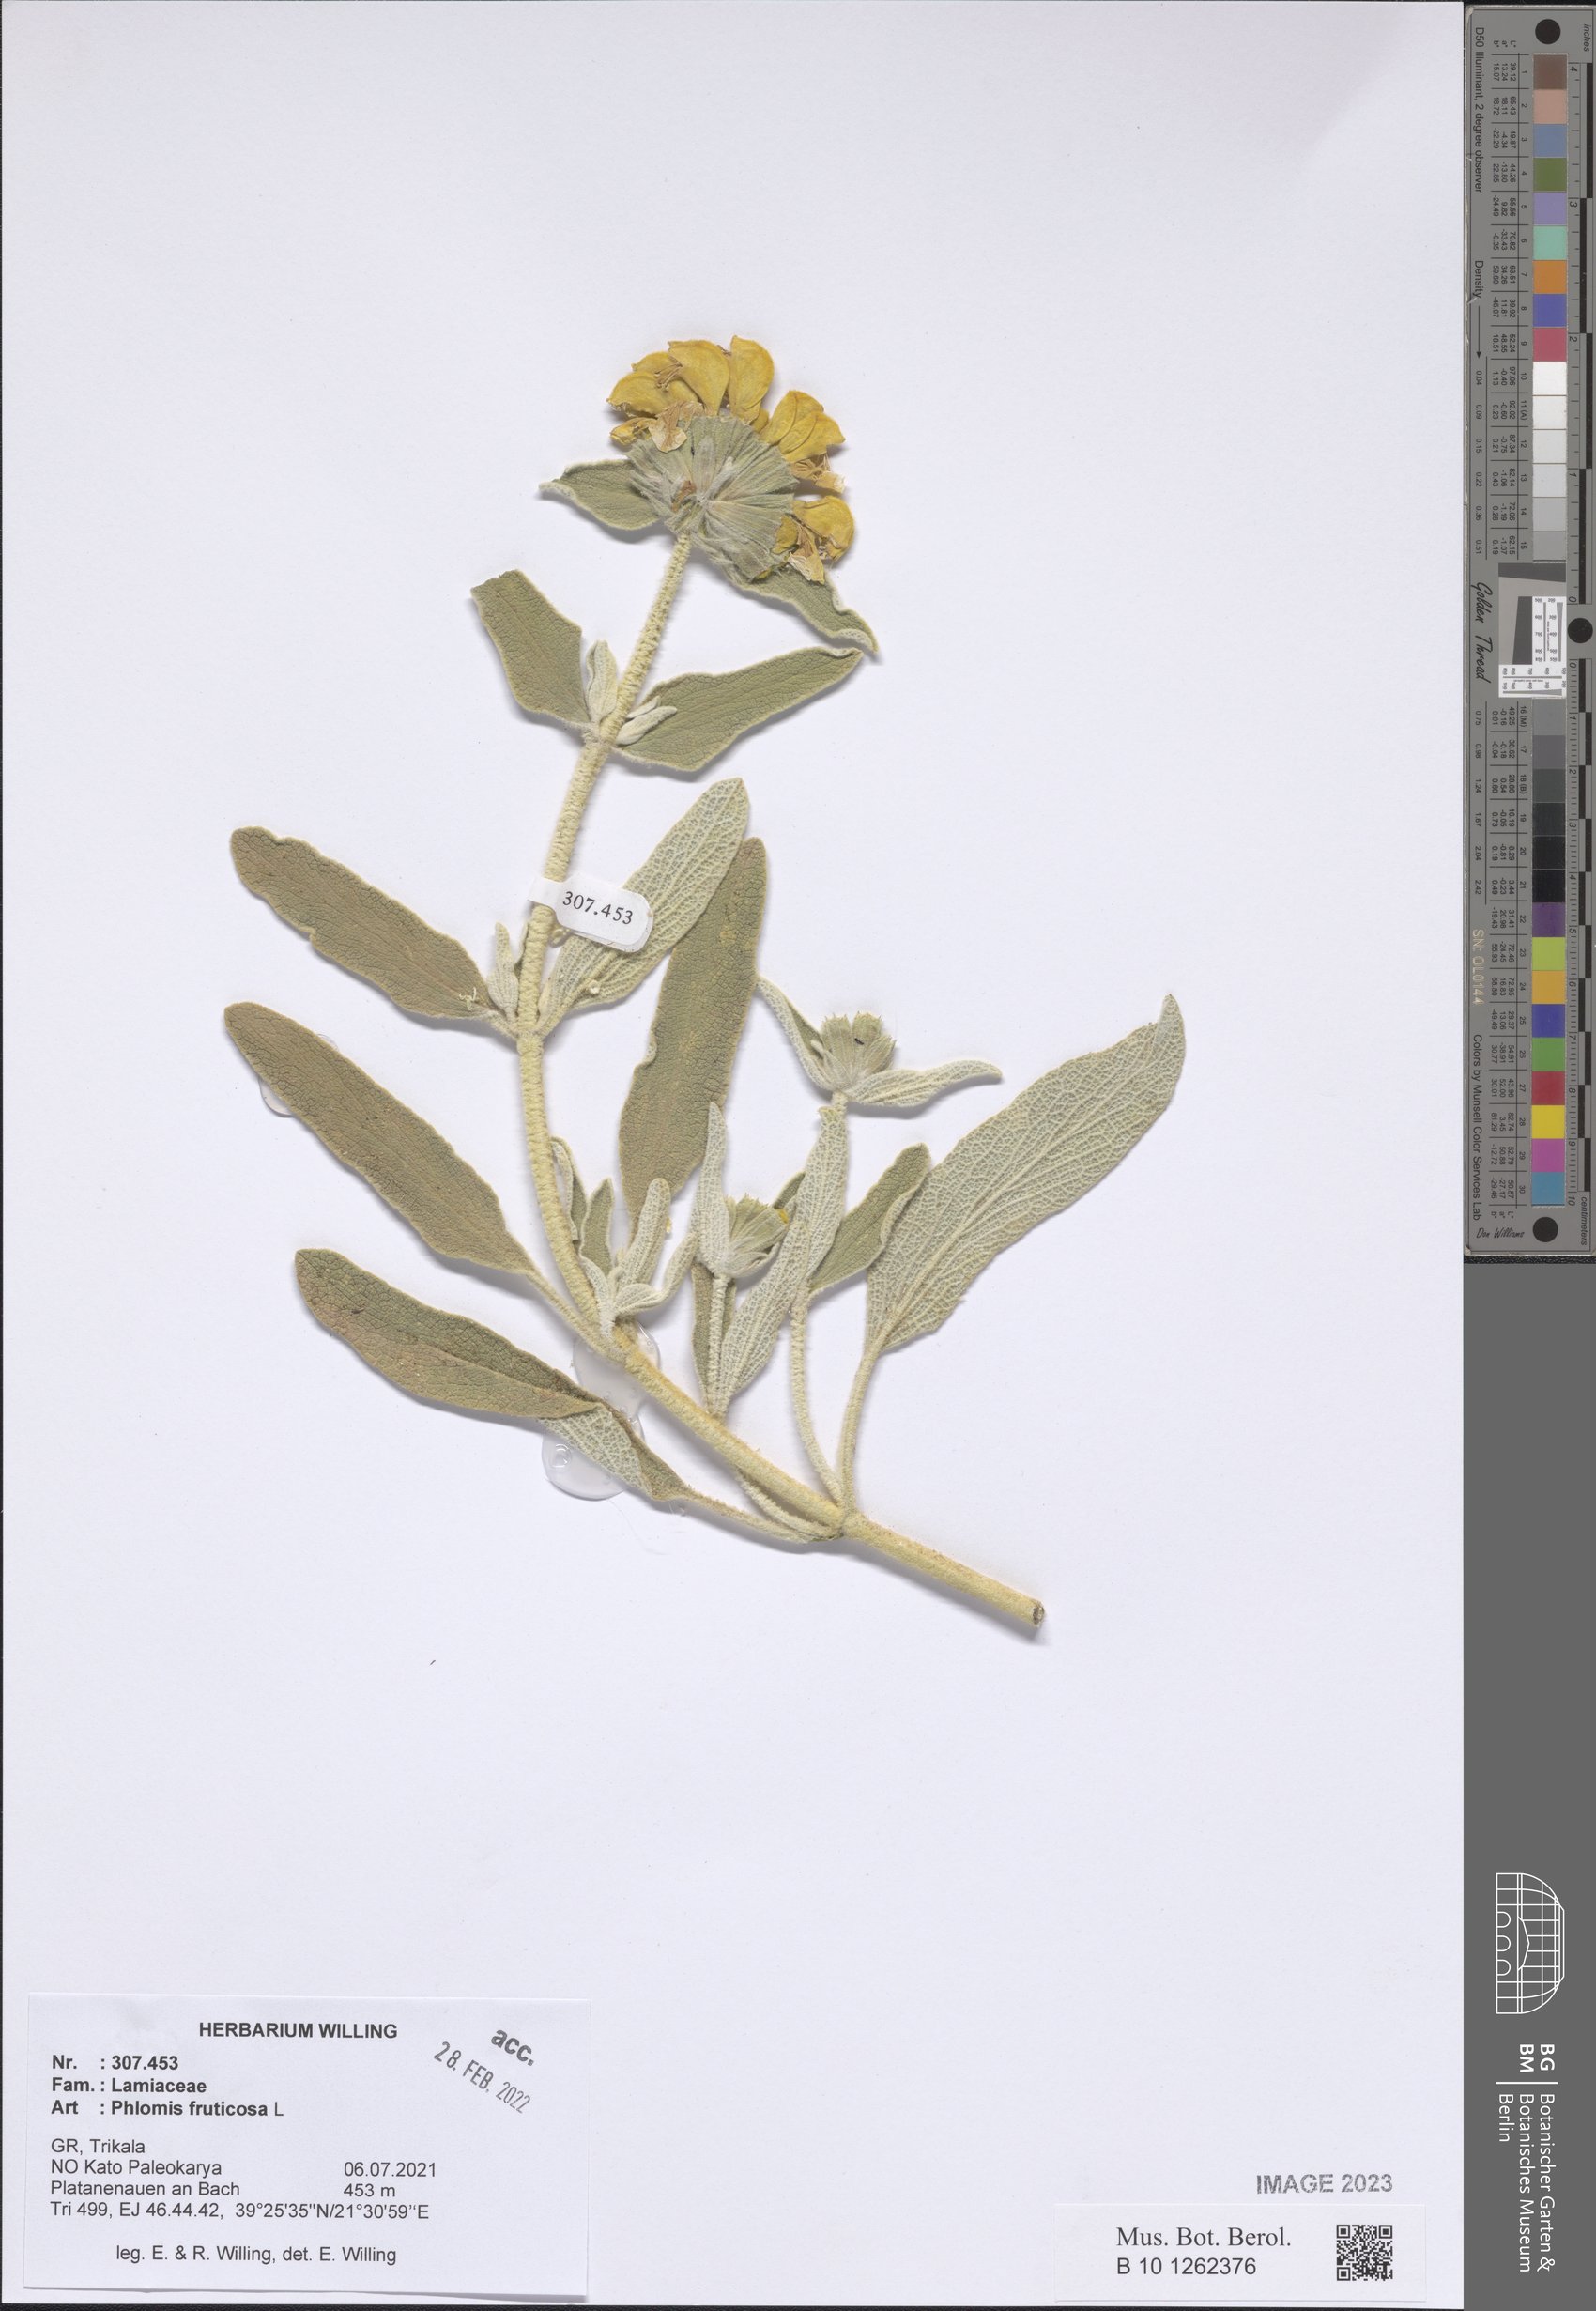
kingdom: Plantae
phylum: Tracheophyta
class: Magnoliopsida
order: Lamiales
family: Lamiaceae
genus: Phlomis
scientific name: Phlomis fruticosa
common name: Jerusalem sage
